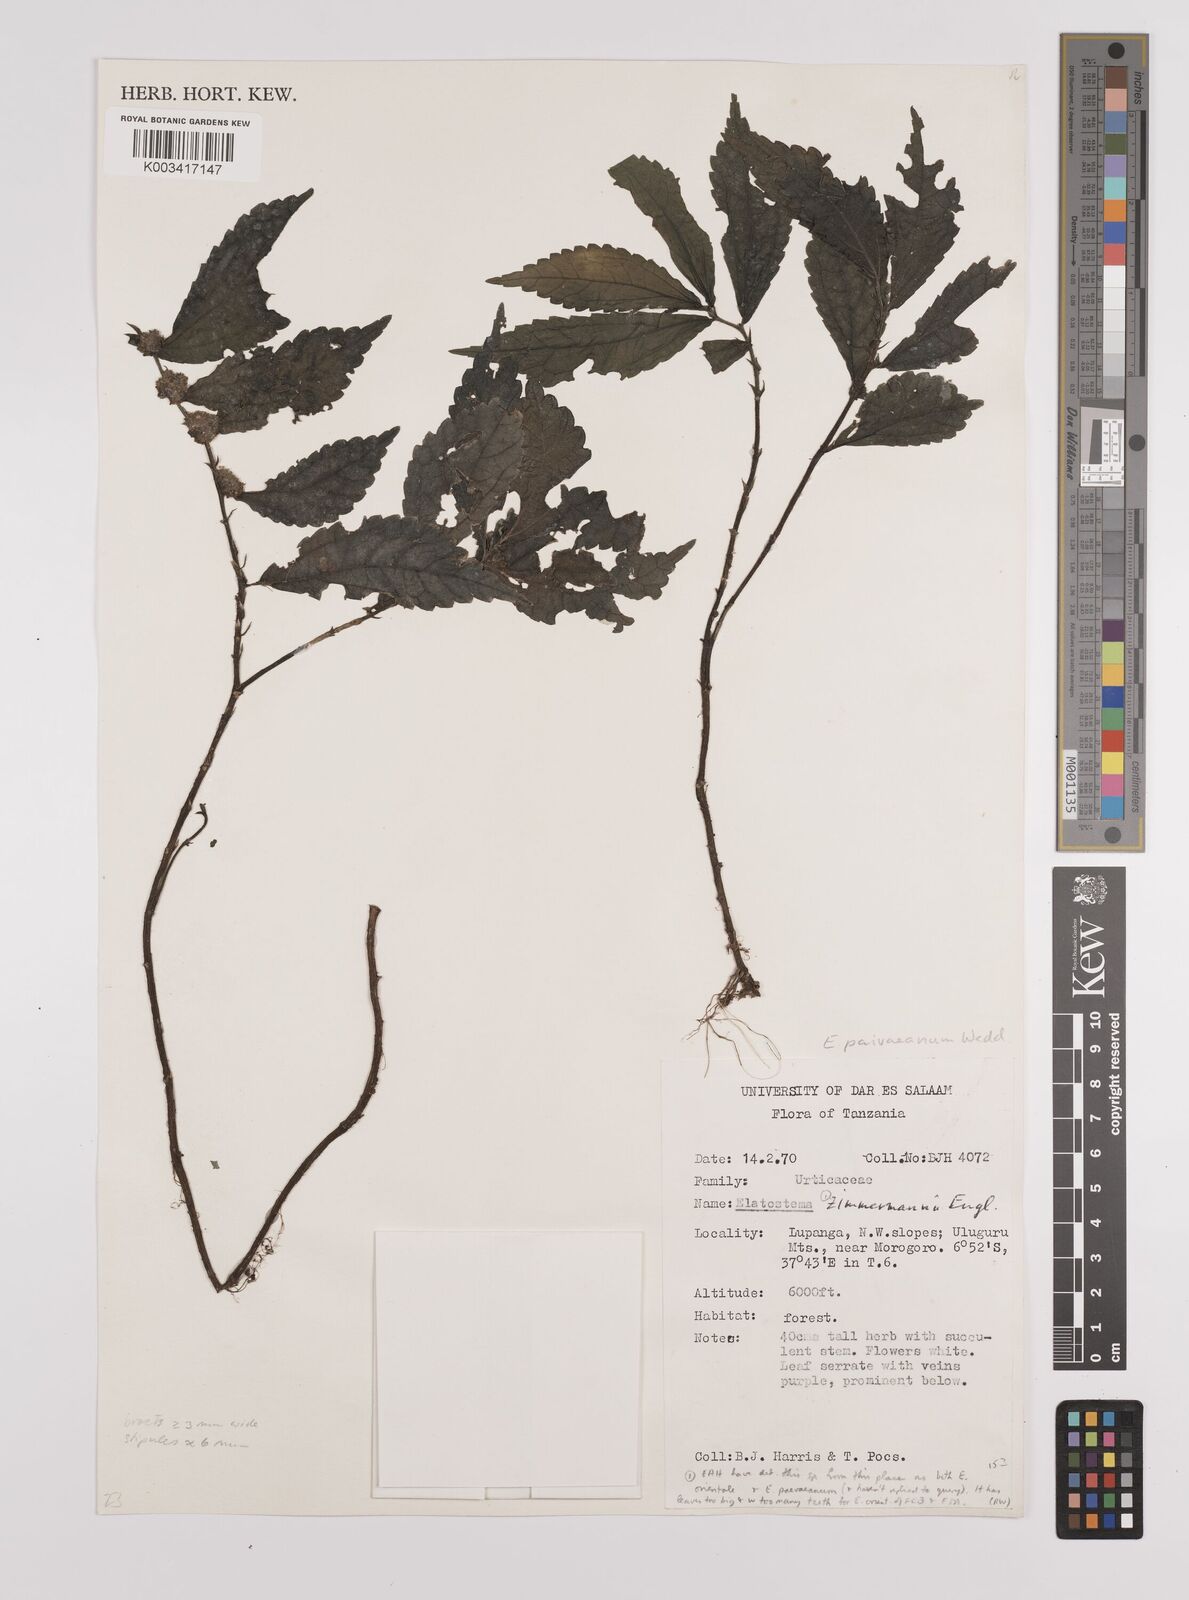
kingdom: Plantae
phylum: Tracheophyta
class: Magnoliopsida
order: Rosales
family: Urticaceae
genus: Elatostema
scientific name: Elatostema paivaeanum
